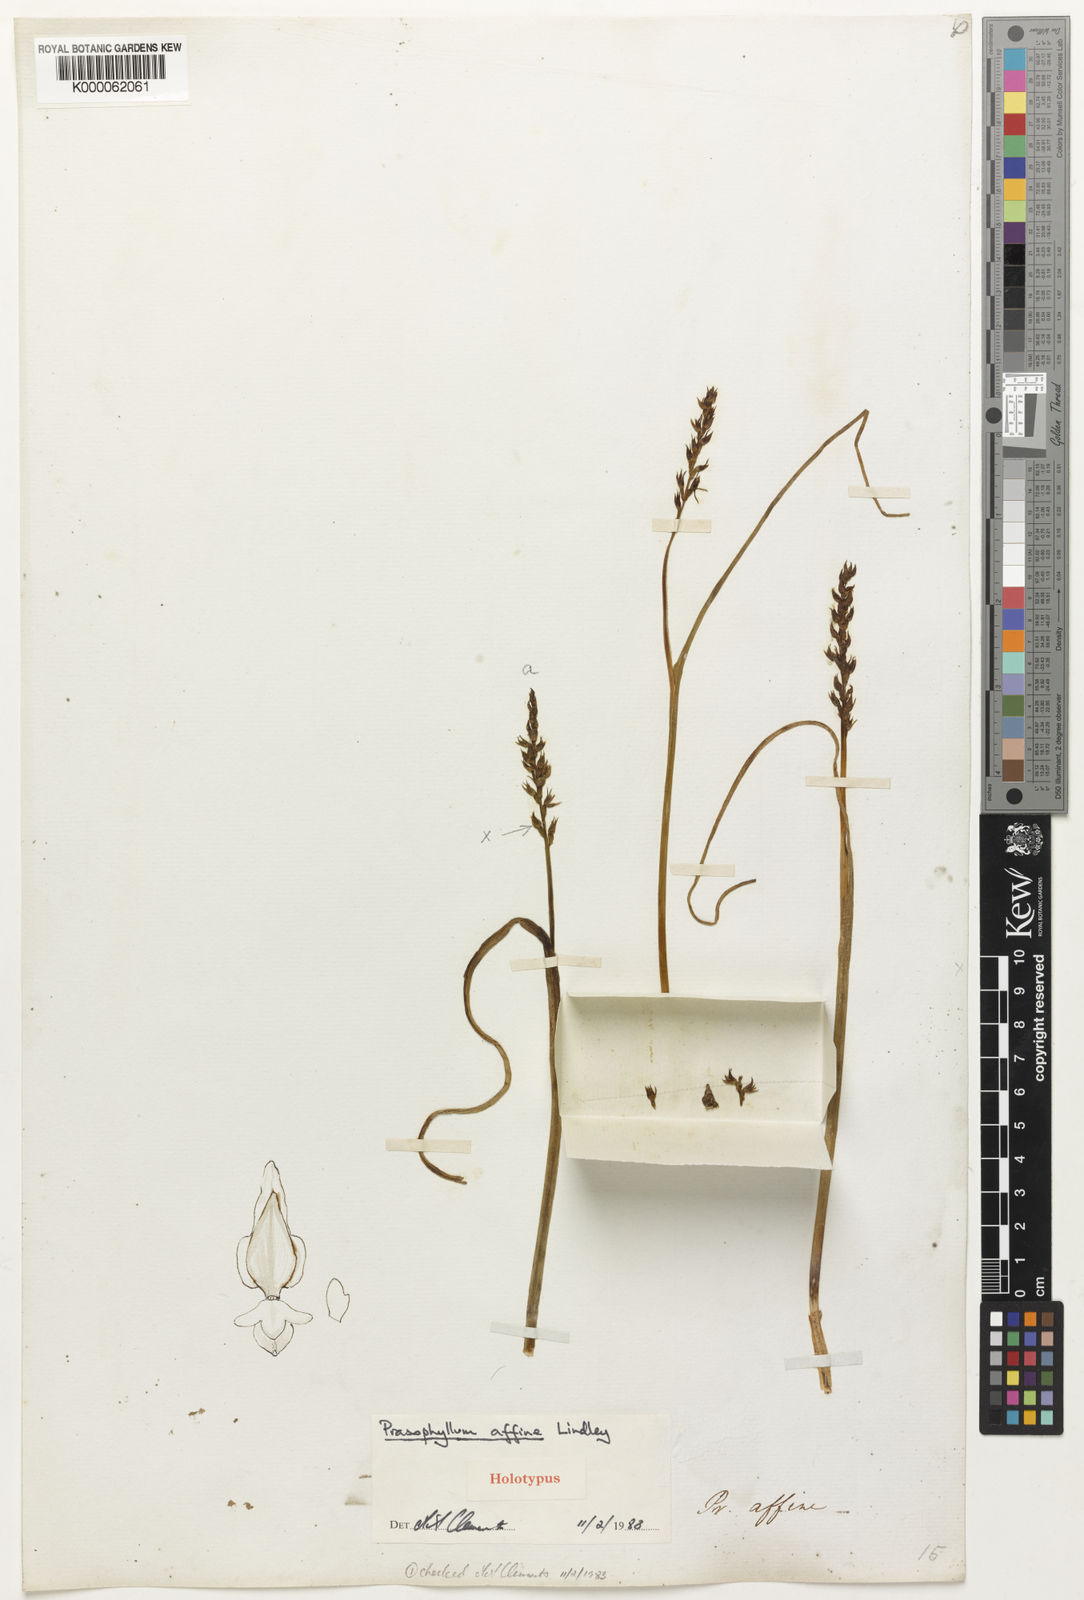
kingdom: Plantae
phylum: Tracheophyta
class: Liliopsida
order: Asparagales
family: Orchidaceae
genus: Prasophyllum
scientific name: Prasophyllum affine
